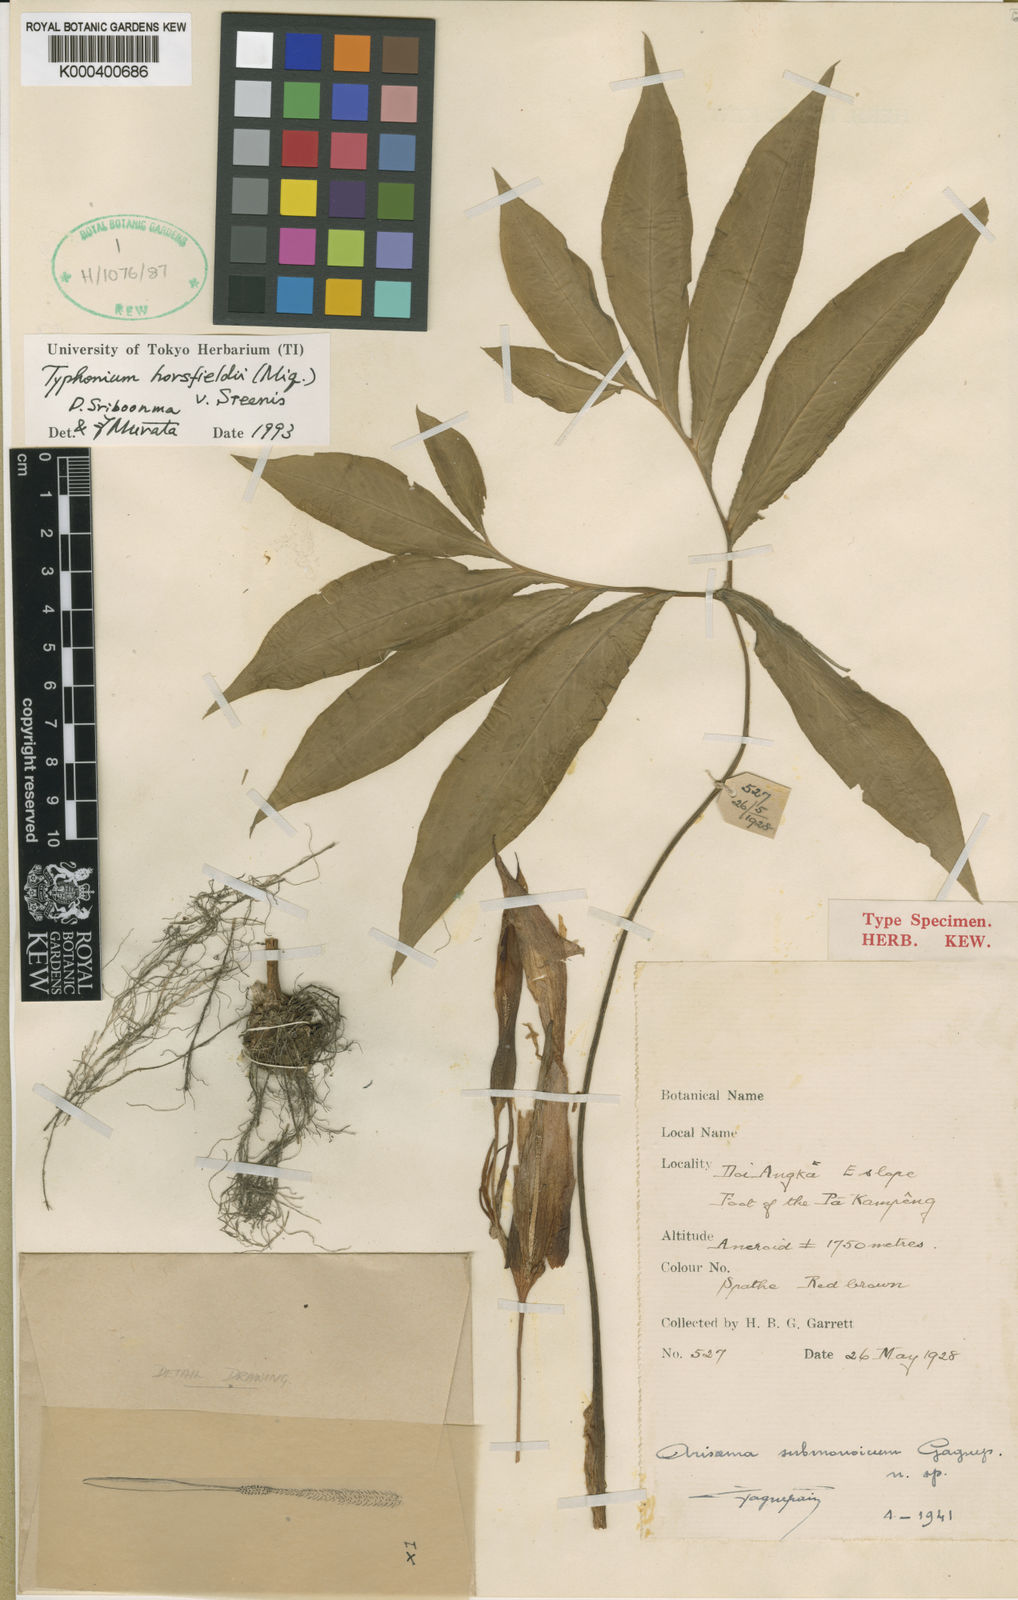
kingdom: Plantae
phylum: Tracheophyta
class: Liliopsida
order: Alismatales
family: Araceae
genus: Sauromatum
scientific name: Sauromatum horsfieldii
